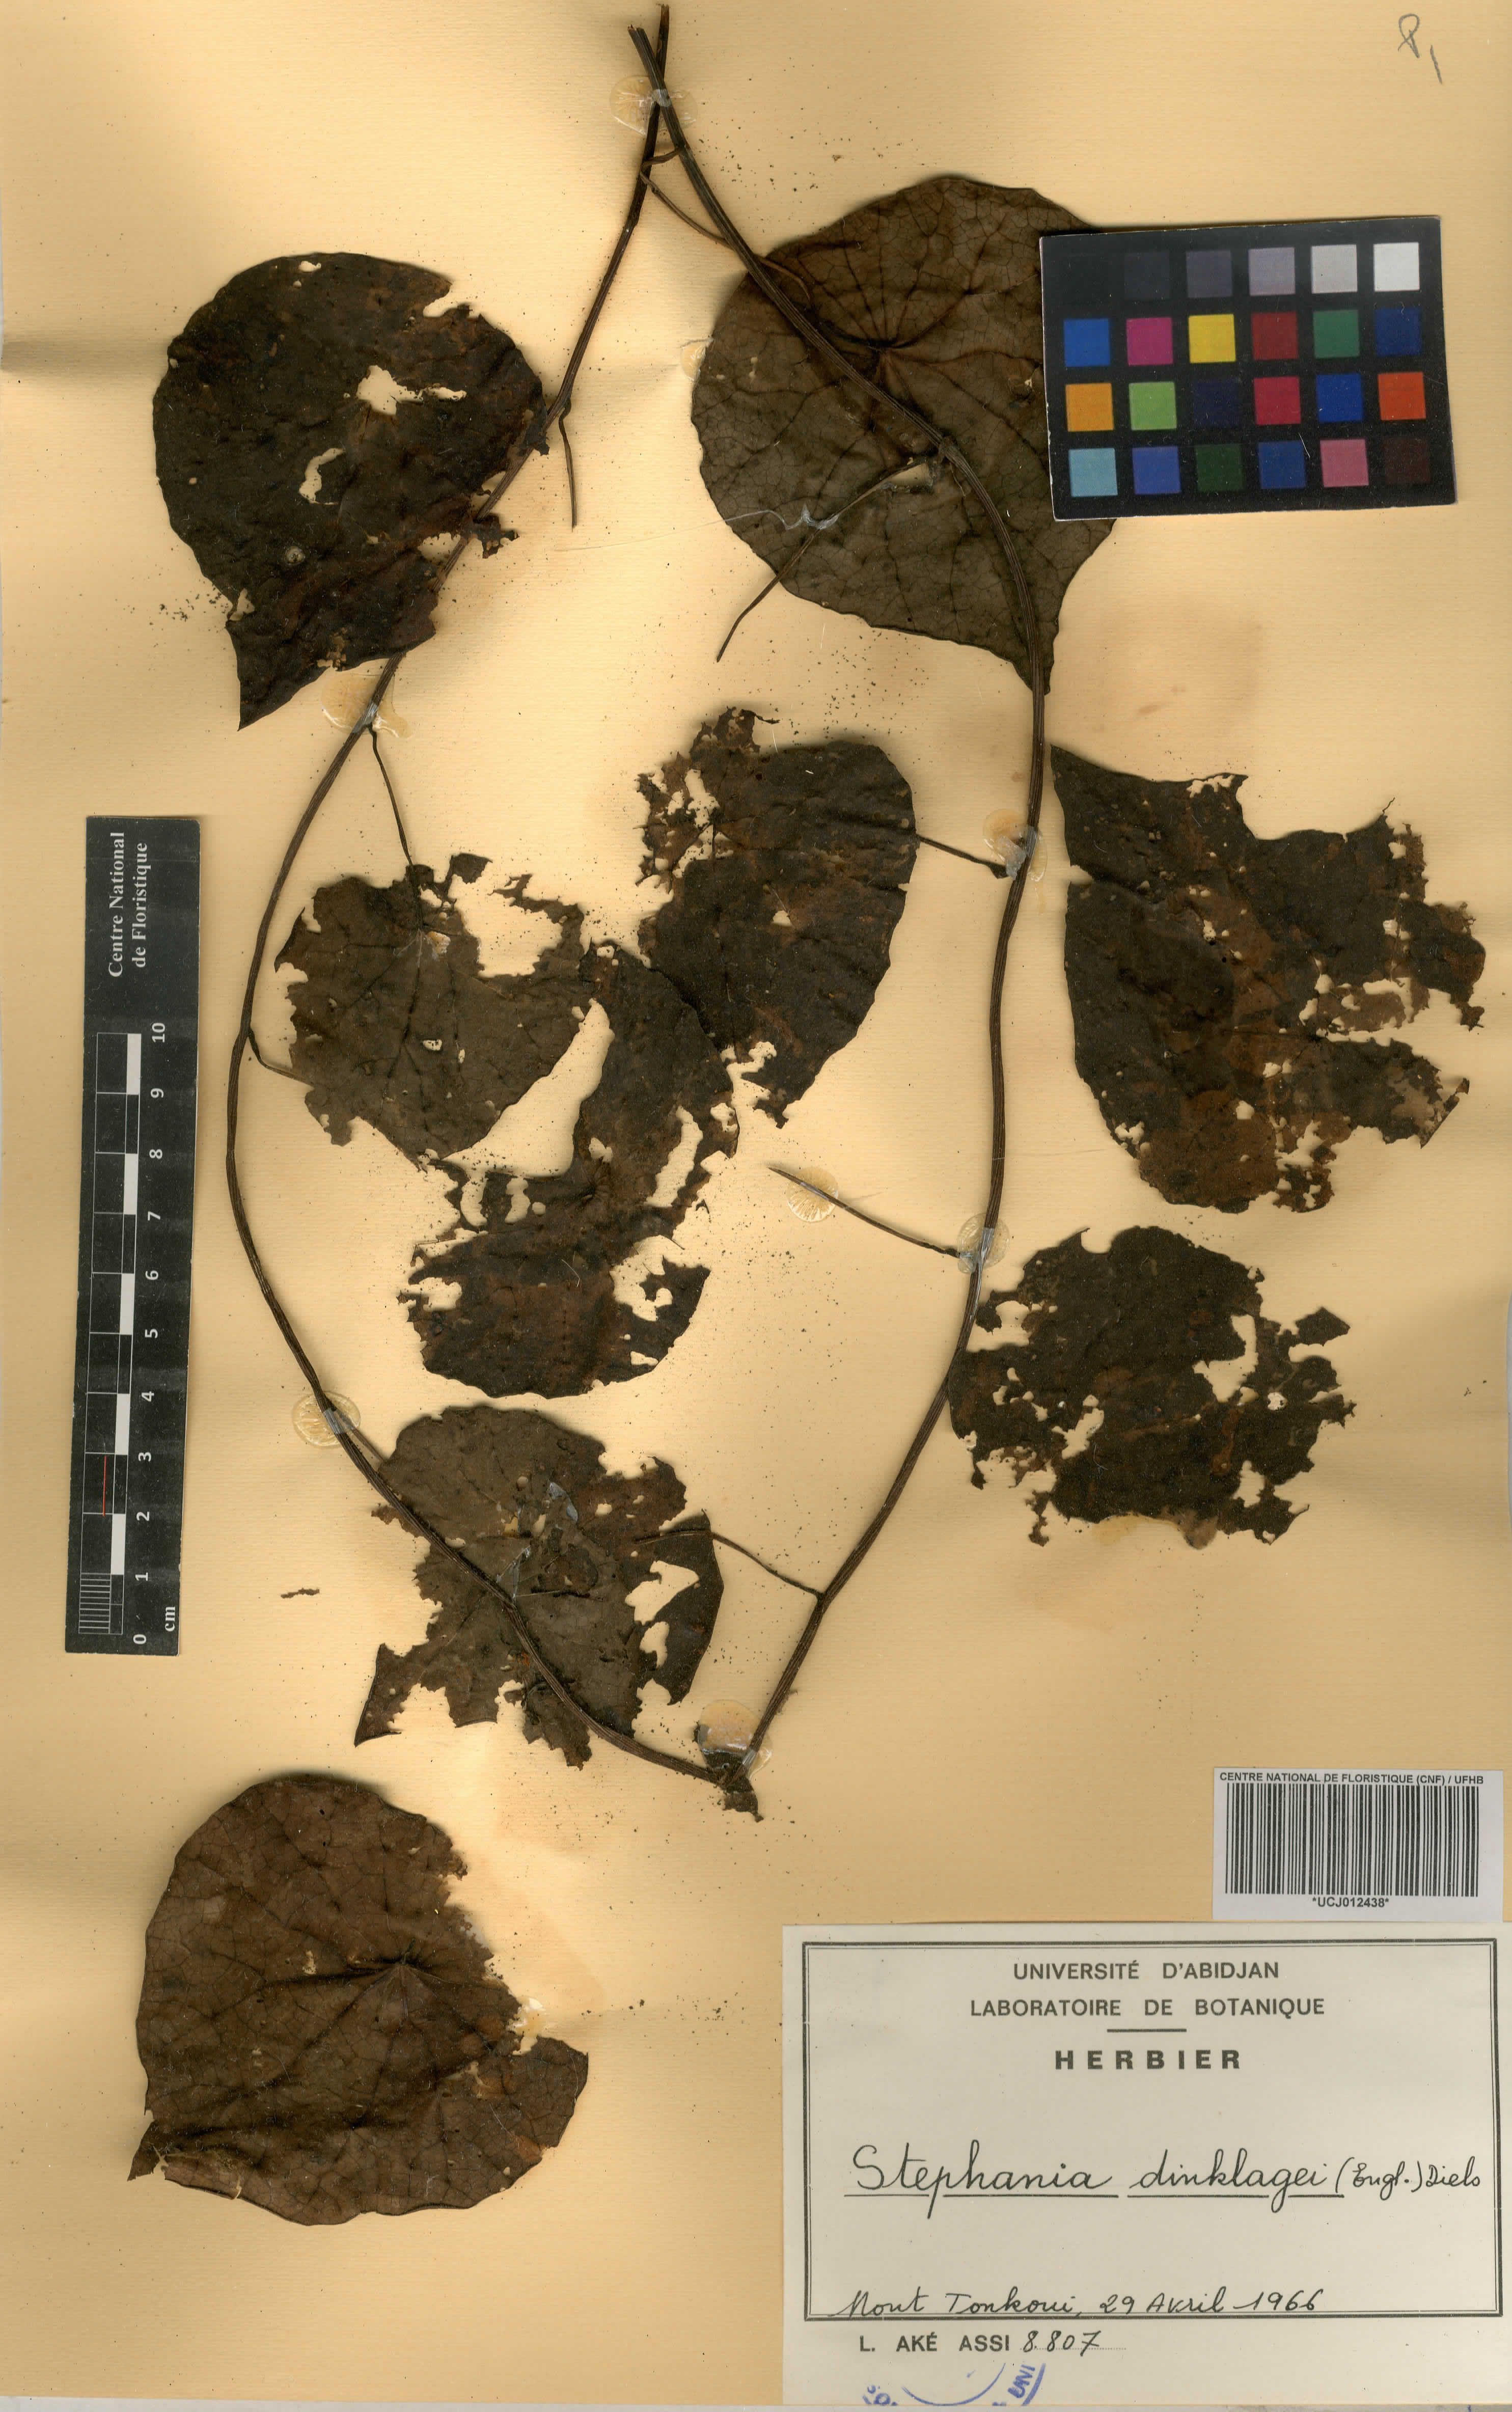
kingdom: Plantae
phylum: Tracheophyta
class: Magnoliopsida
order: Ranunculales
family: Menispermaceae
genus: Stephania
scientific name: Stephania dinklagei
